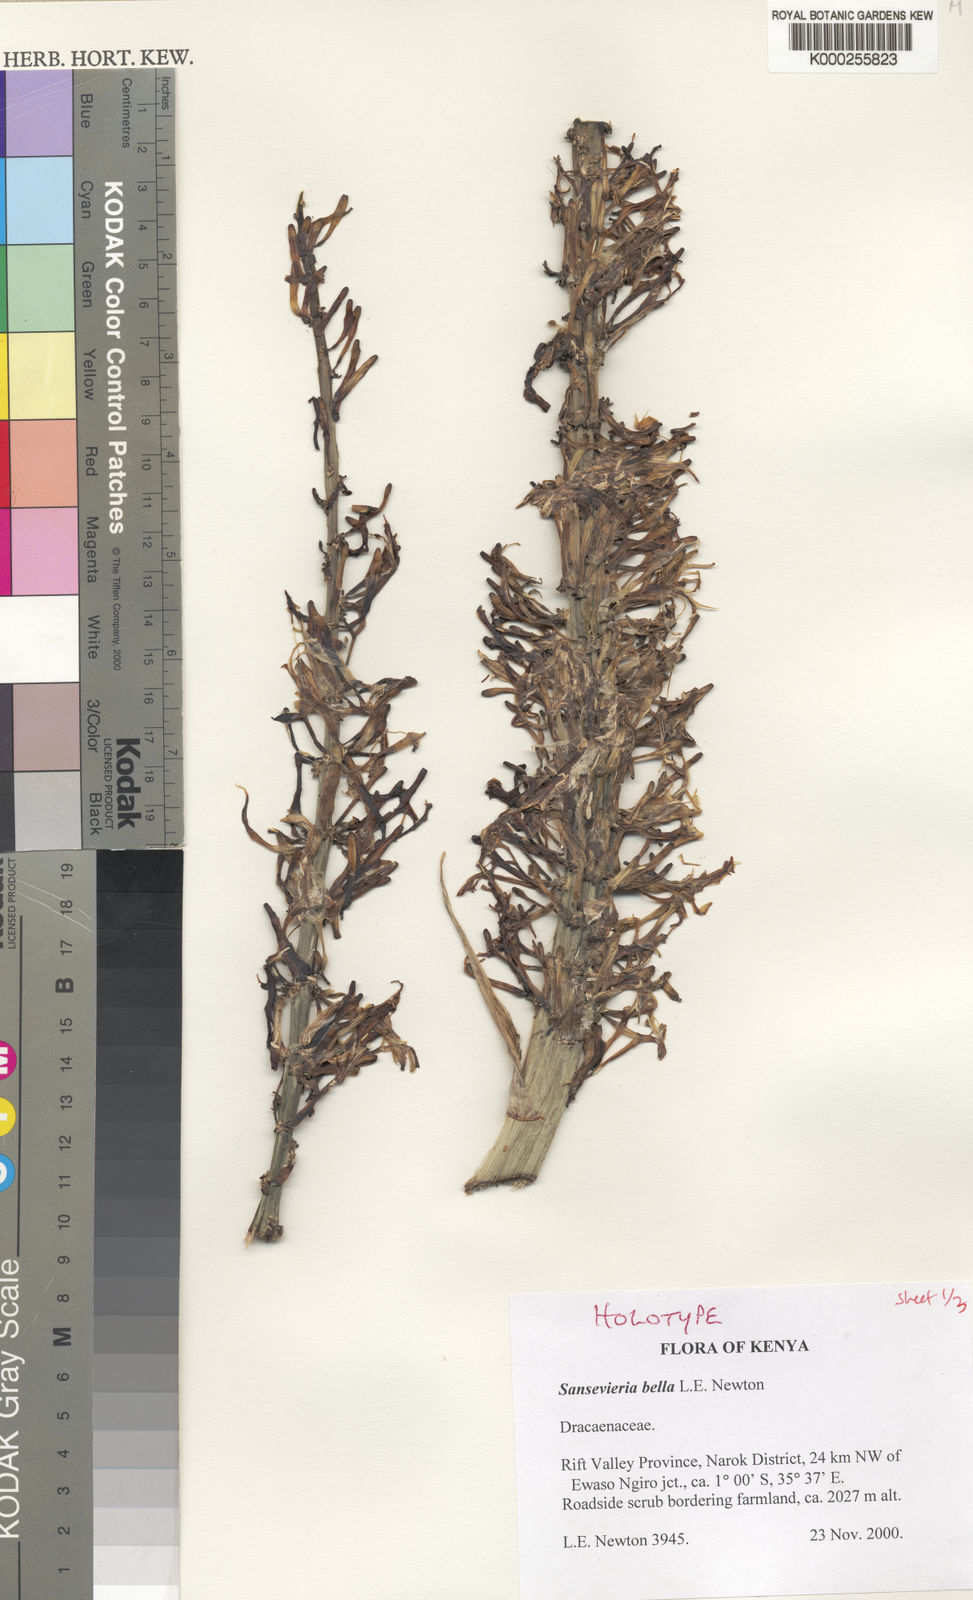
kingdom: Plantae
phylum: Tracheophyta
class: Liliopsida
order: Asparagales
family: Asparagaceae
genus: Dracaena
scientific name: Dracaena
